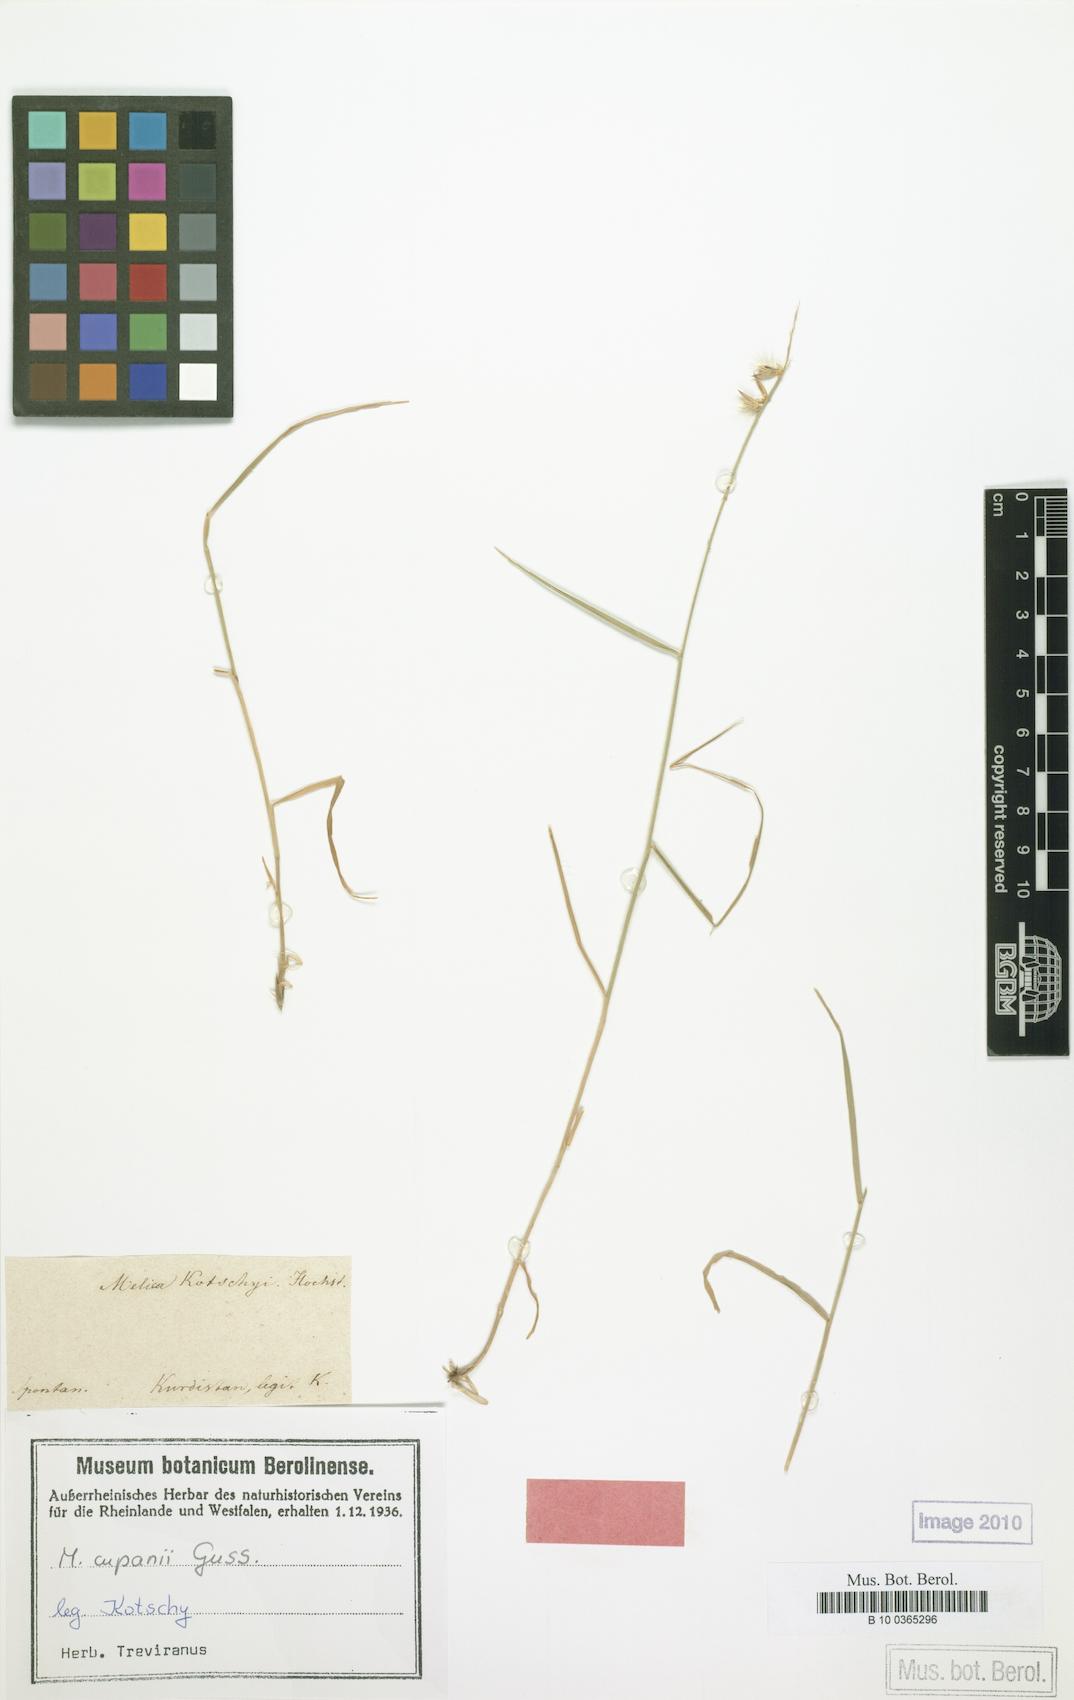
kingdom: Plantae
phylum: Tracheophyta
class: Liliopsida
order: Poales
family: Poaceae
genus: Melica
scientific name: Melica persica
